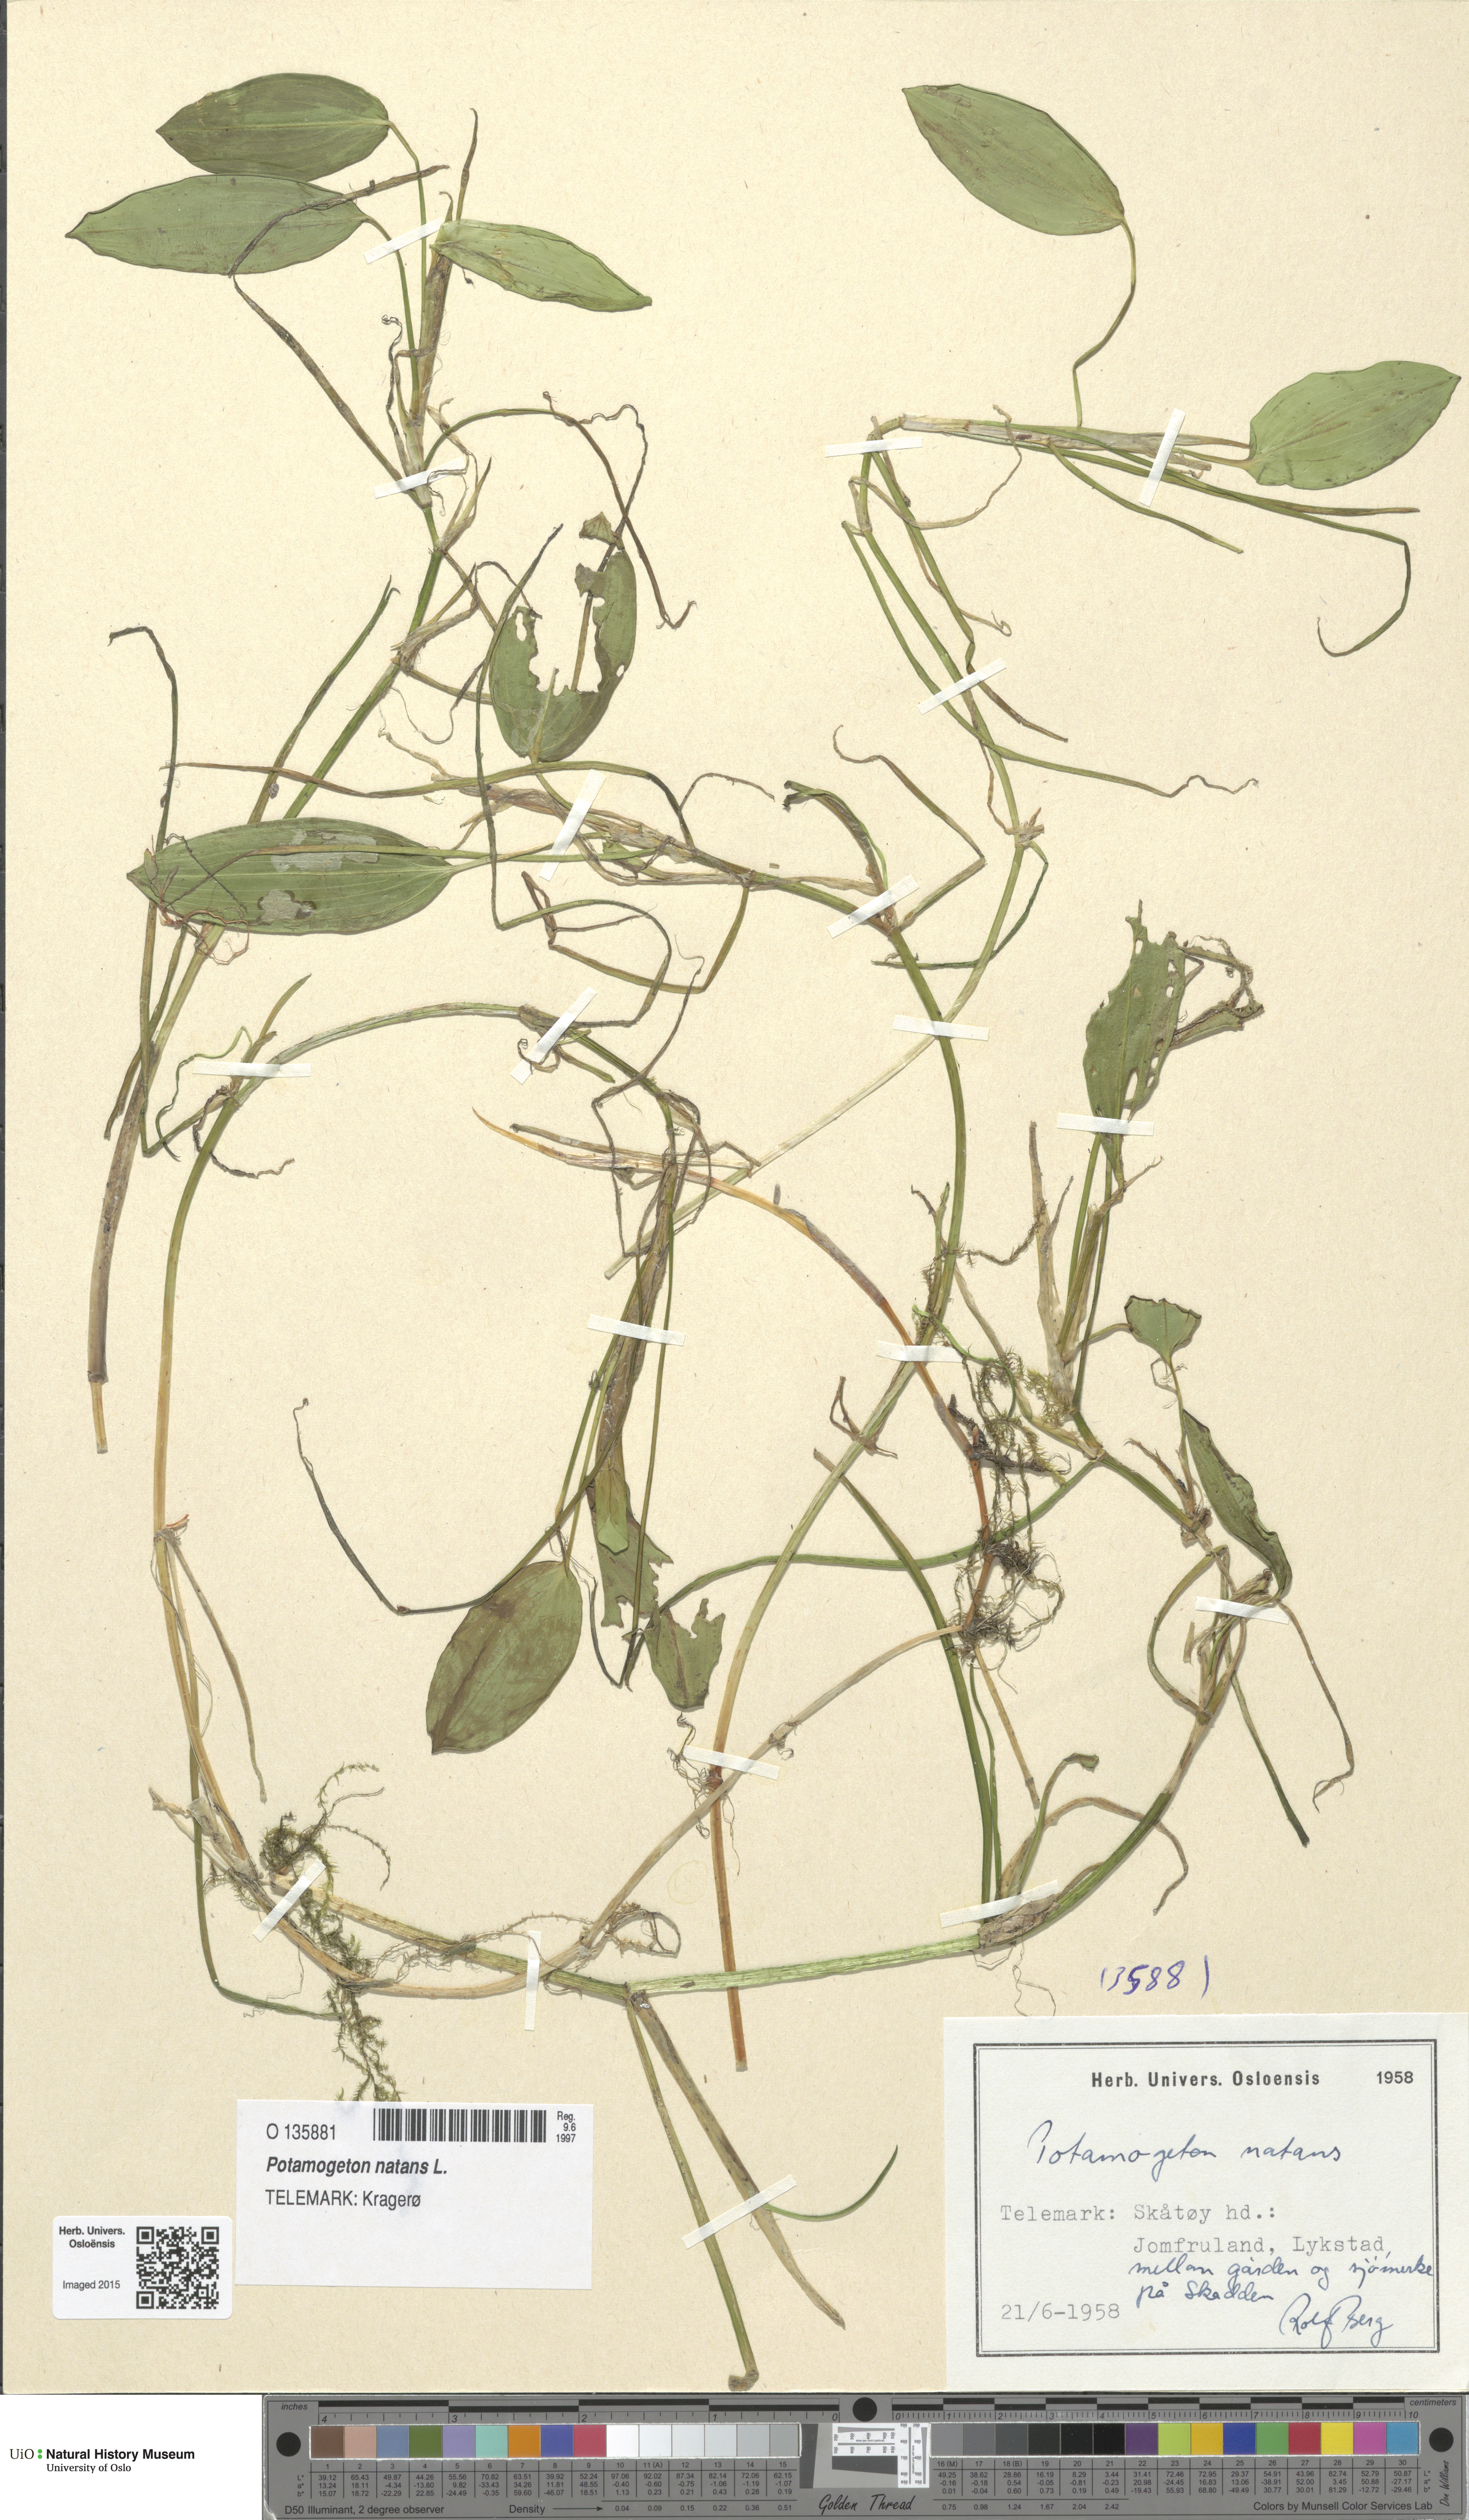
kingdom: Plantae
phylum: Tracheophyta
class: Liliopsida
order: Alismatales
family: Potamogetonaceae
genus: Potamogeton
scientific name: Potamogeton natans
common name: Broad-leaved pondweed
